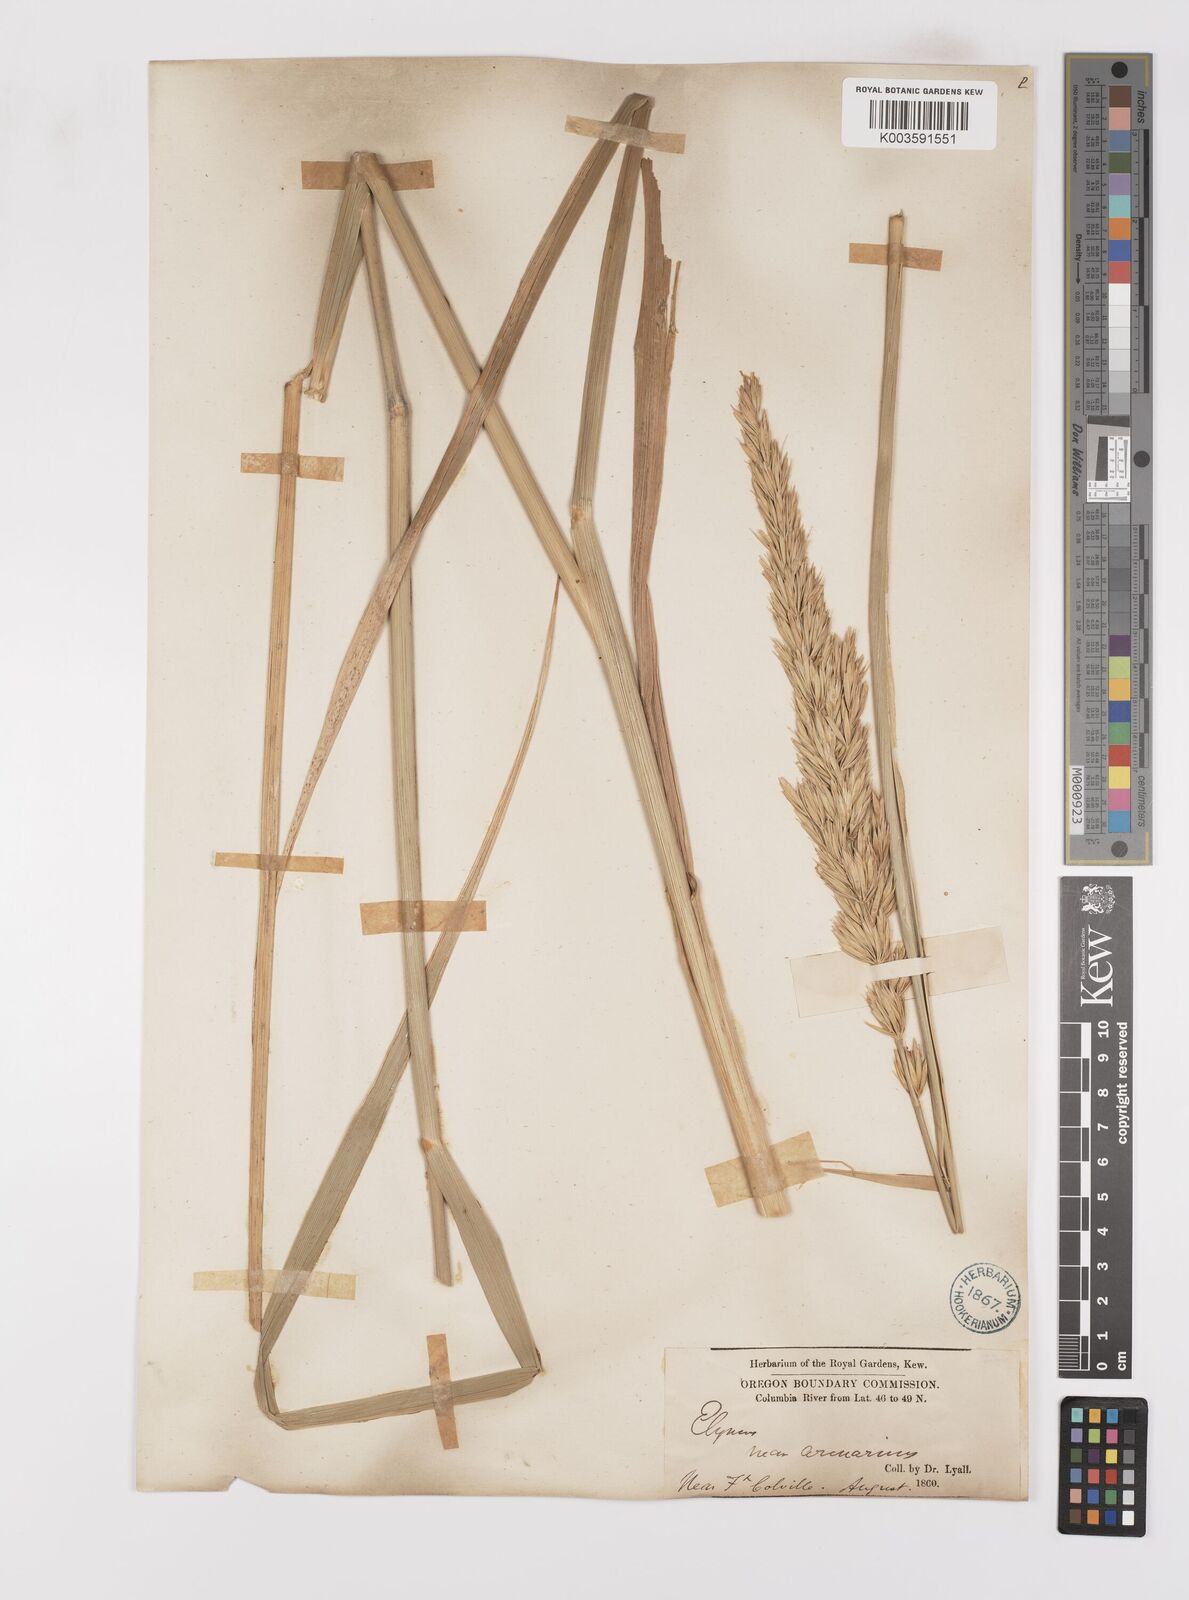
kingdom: Plantae
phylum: Tracheophyta
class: Liliopsida
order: Poales
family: Poaceae
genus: Leymus
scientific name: Leymus condensatus
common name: Giant wild rye
